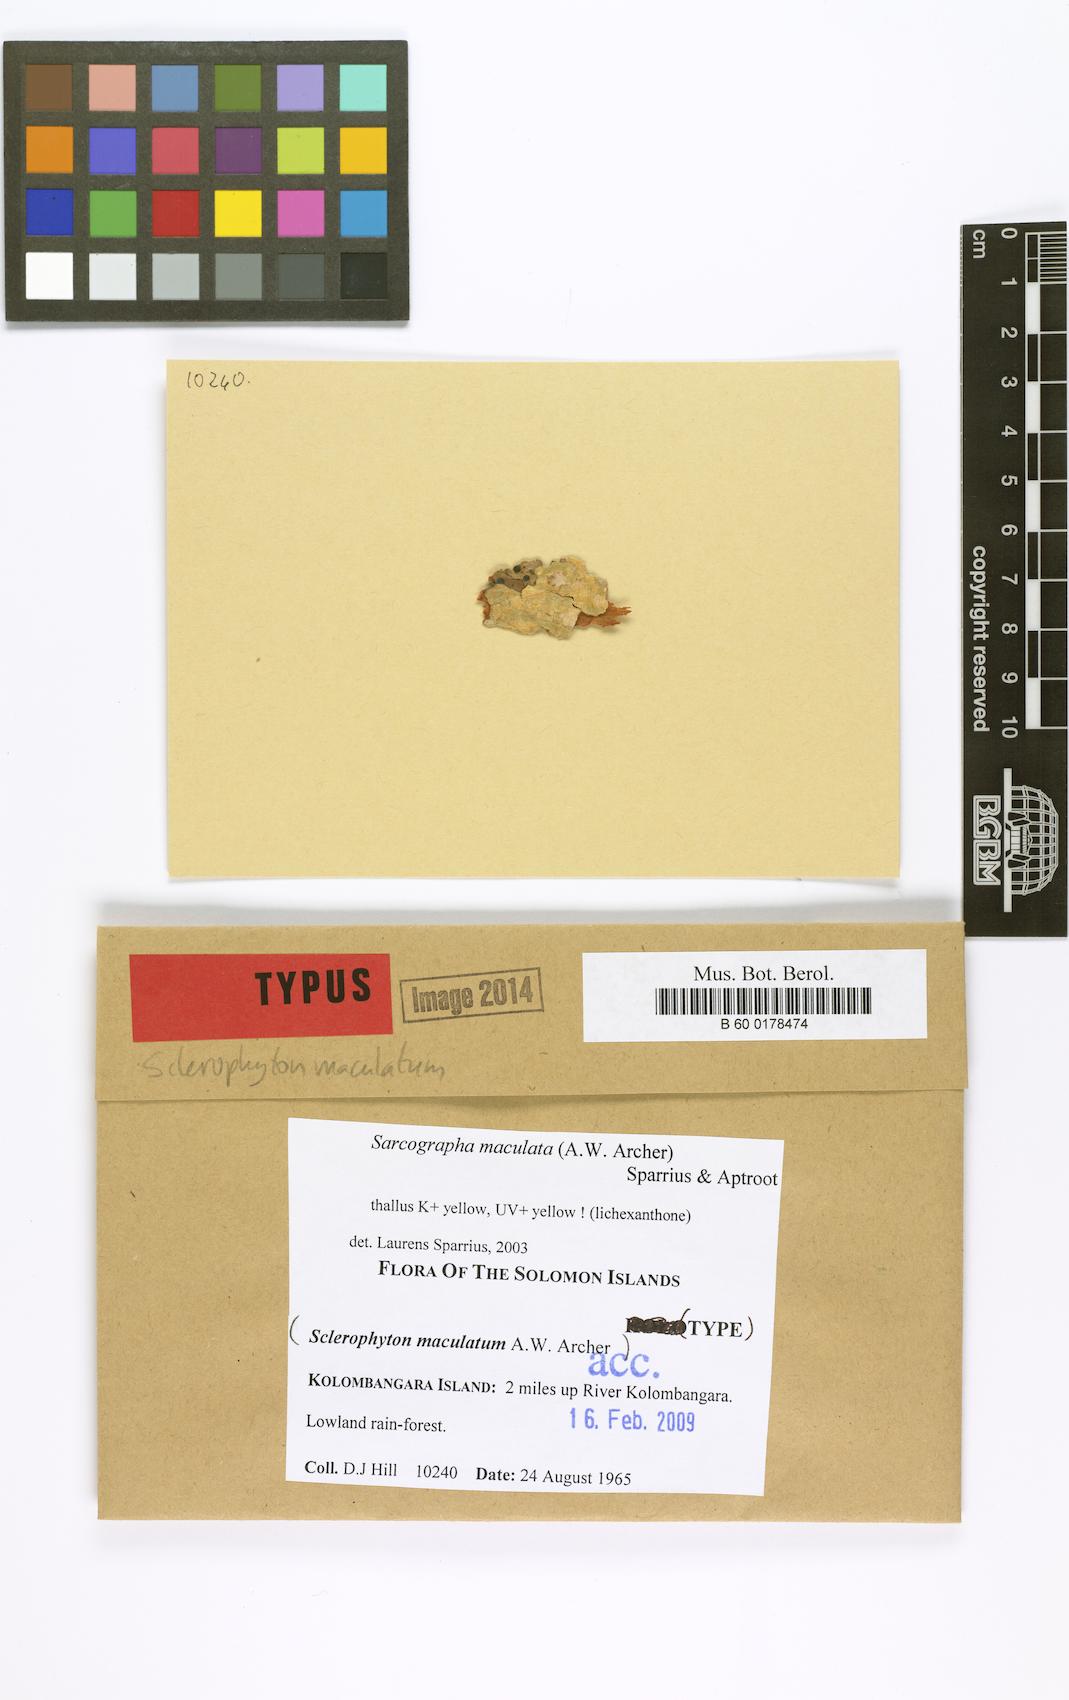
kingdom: Fungi
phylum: Ascomycota
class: Lecanoromycetes
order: Ostropales
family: Graphidaceae
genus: Sarcographa
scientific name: Sarcographa maculata
